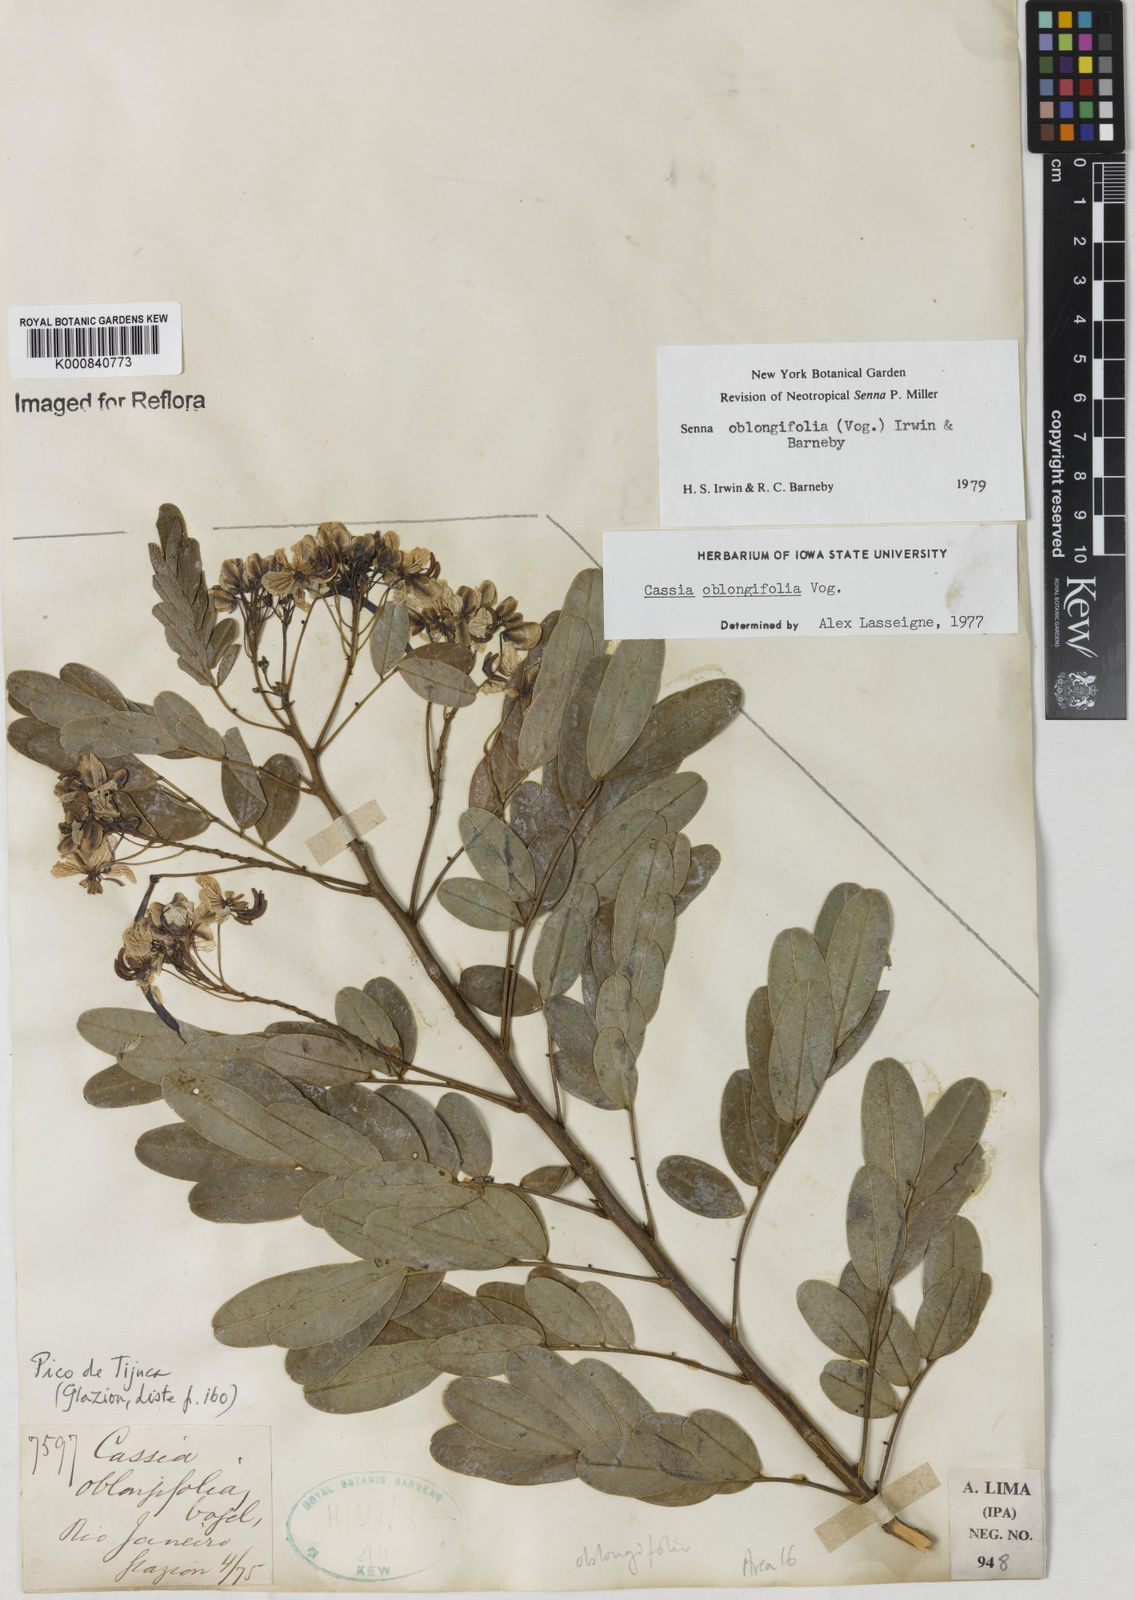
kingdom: Plantae
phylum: Tracheophyta
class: Magnoliopsida
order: Fabales
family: Fabaceae
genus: Senna
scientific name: Senna oblongifolia
